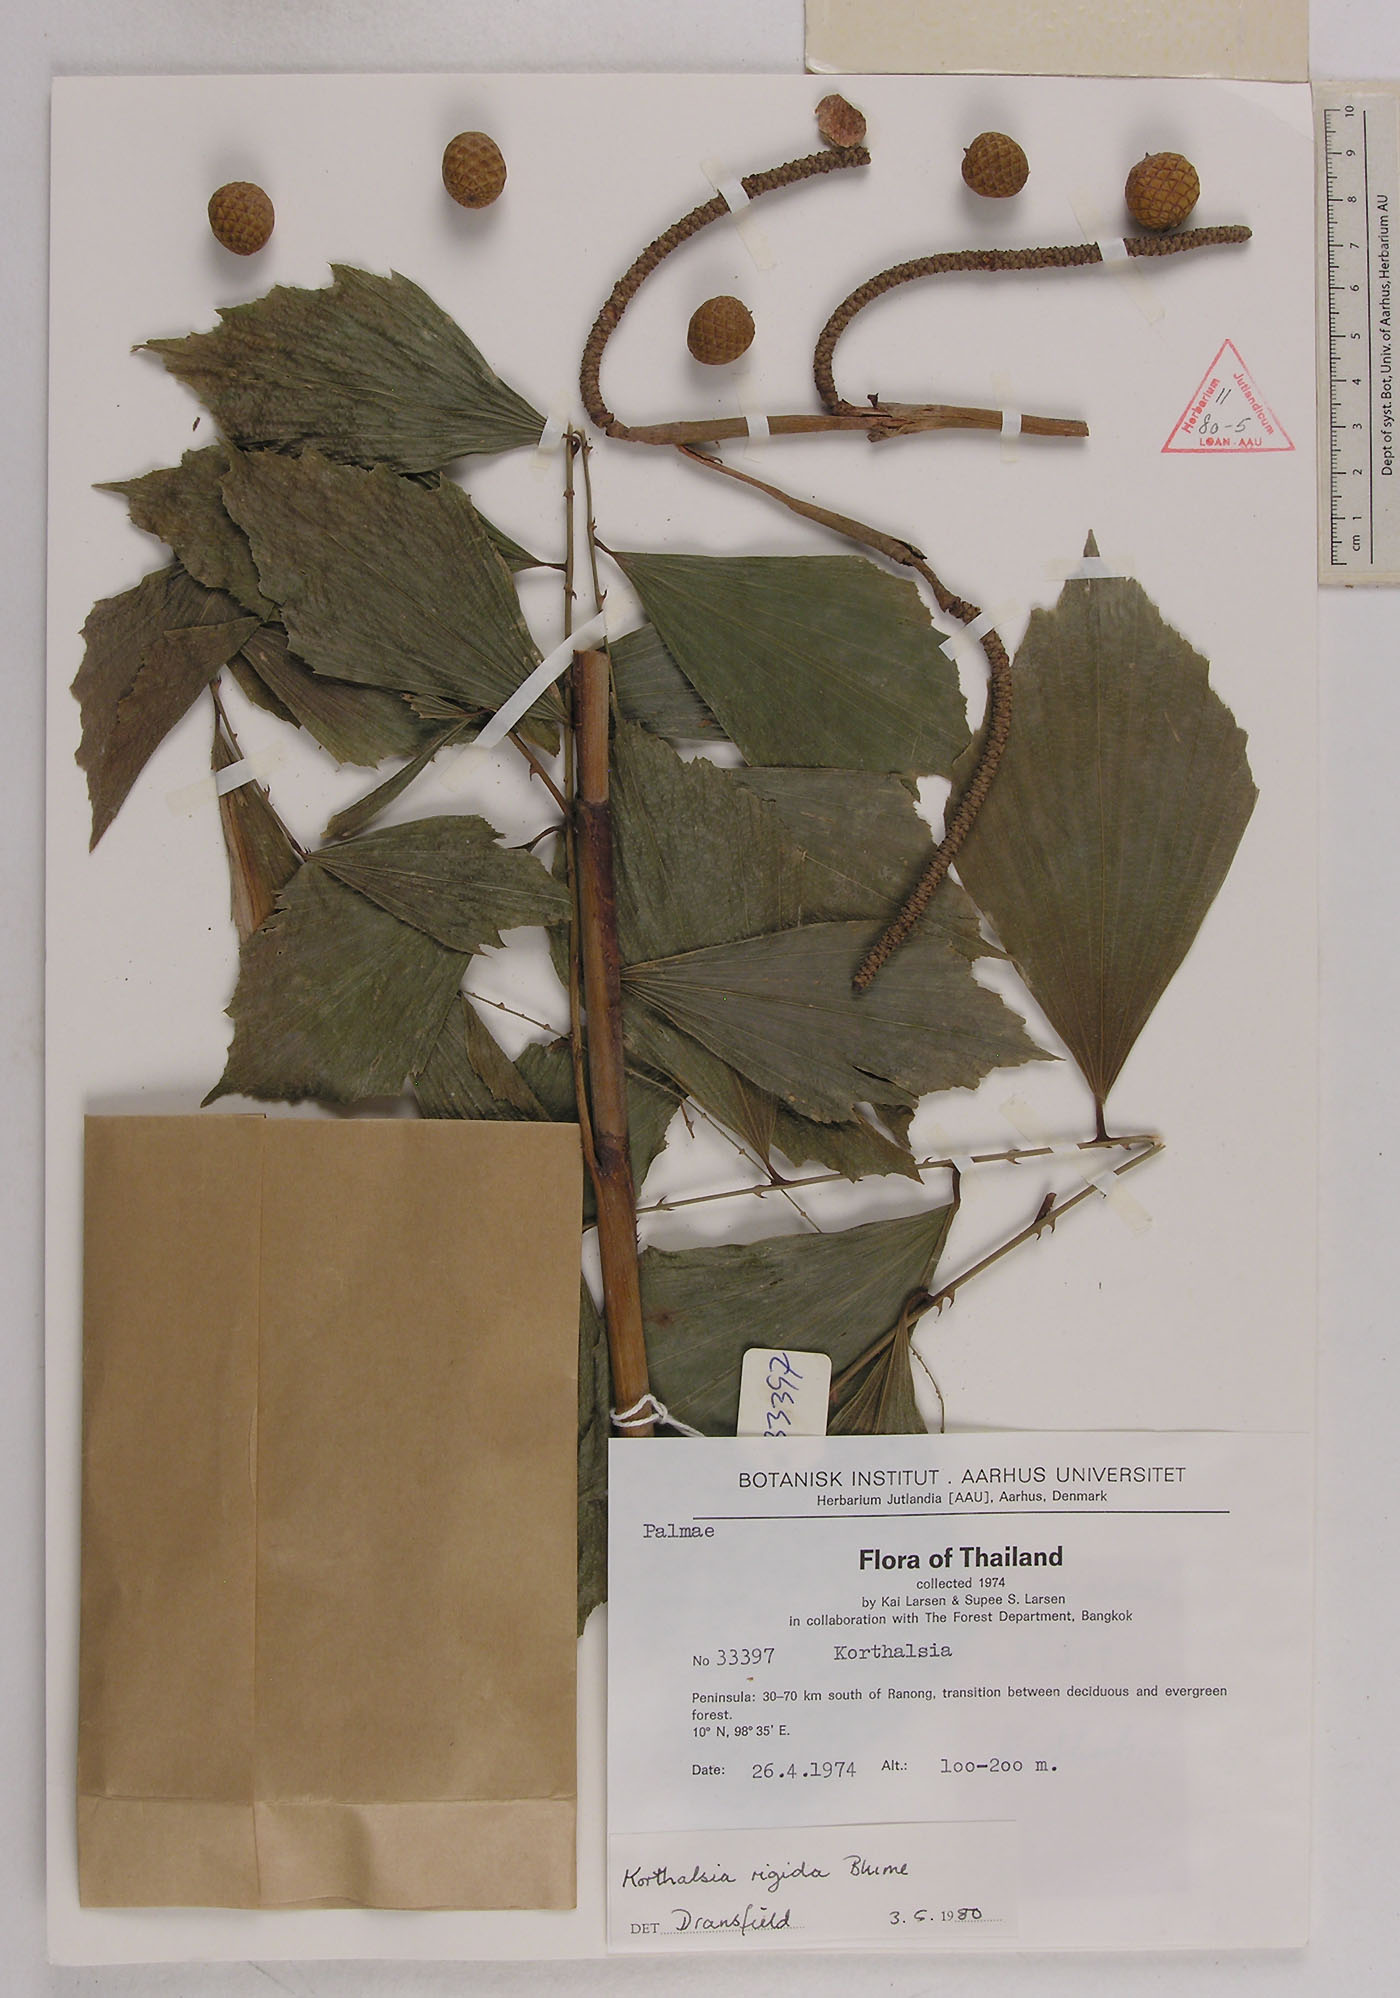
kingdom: Plantae
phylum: Tracheophyta
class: Liliopsida
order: Arecales
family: Arecaceae
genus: Korthalsia
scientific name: Korthalsia
